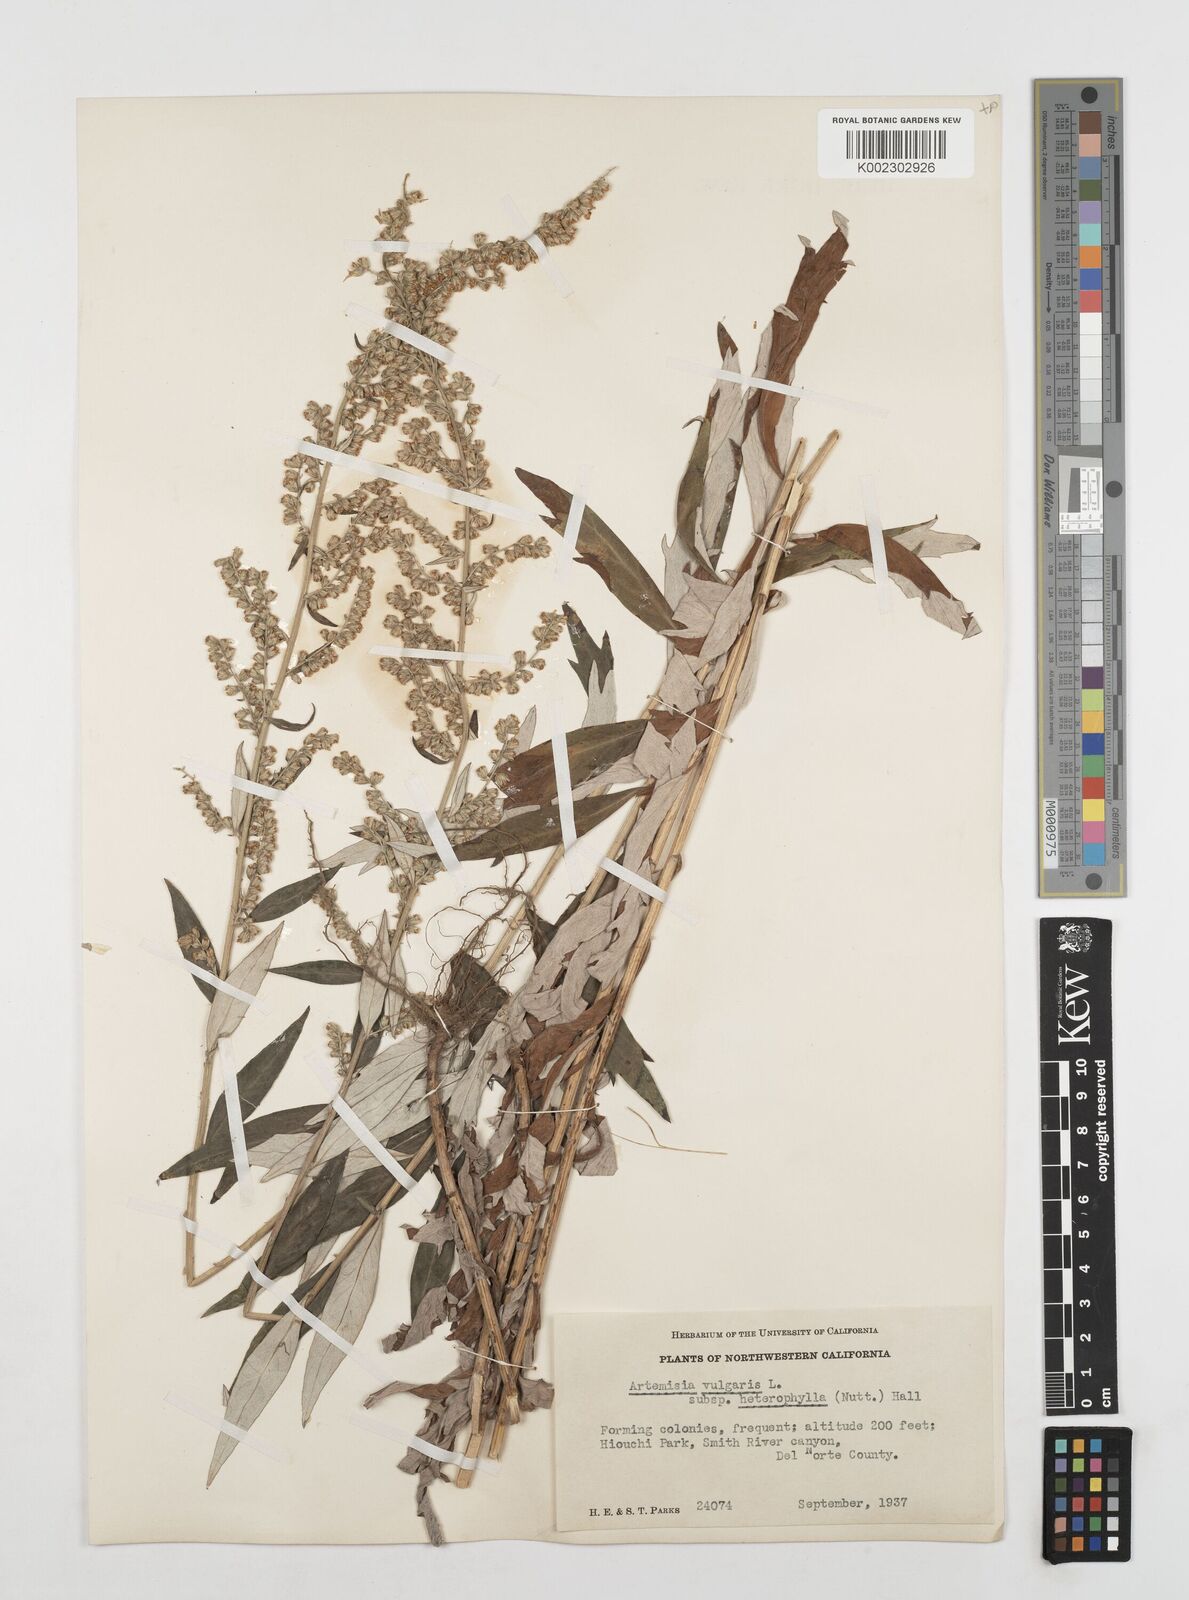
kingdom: Plantae
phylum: Tracheophyta
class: Magnoliopsida
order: Asterales
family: Asteraceae
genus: Artemisia
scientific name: Artemisia douglasiana
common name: Northwest mugwort
